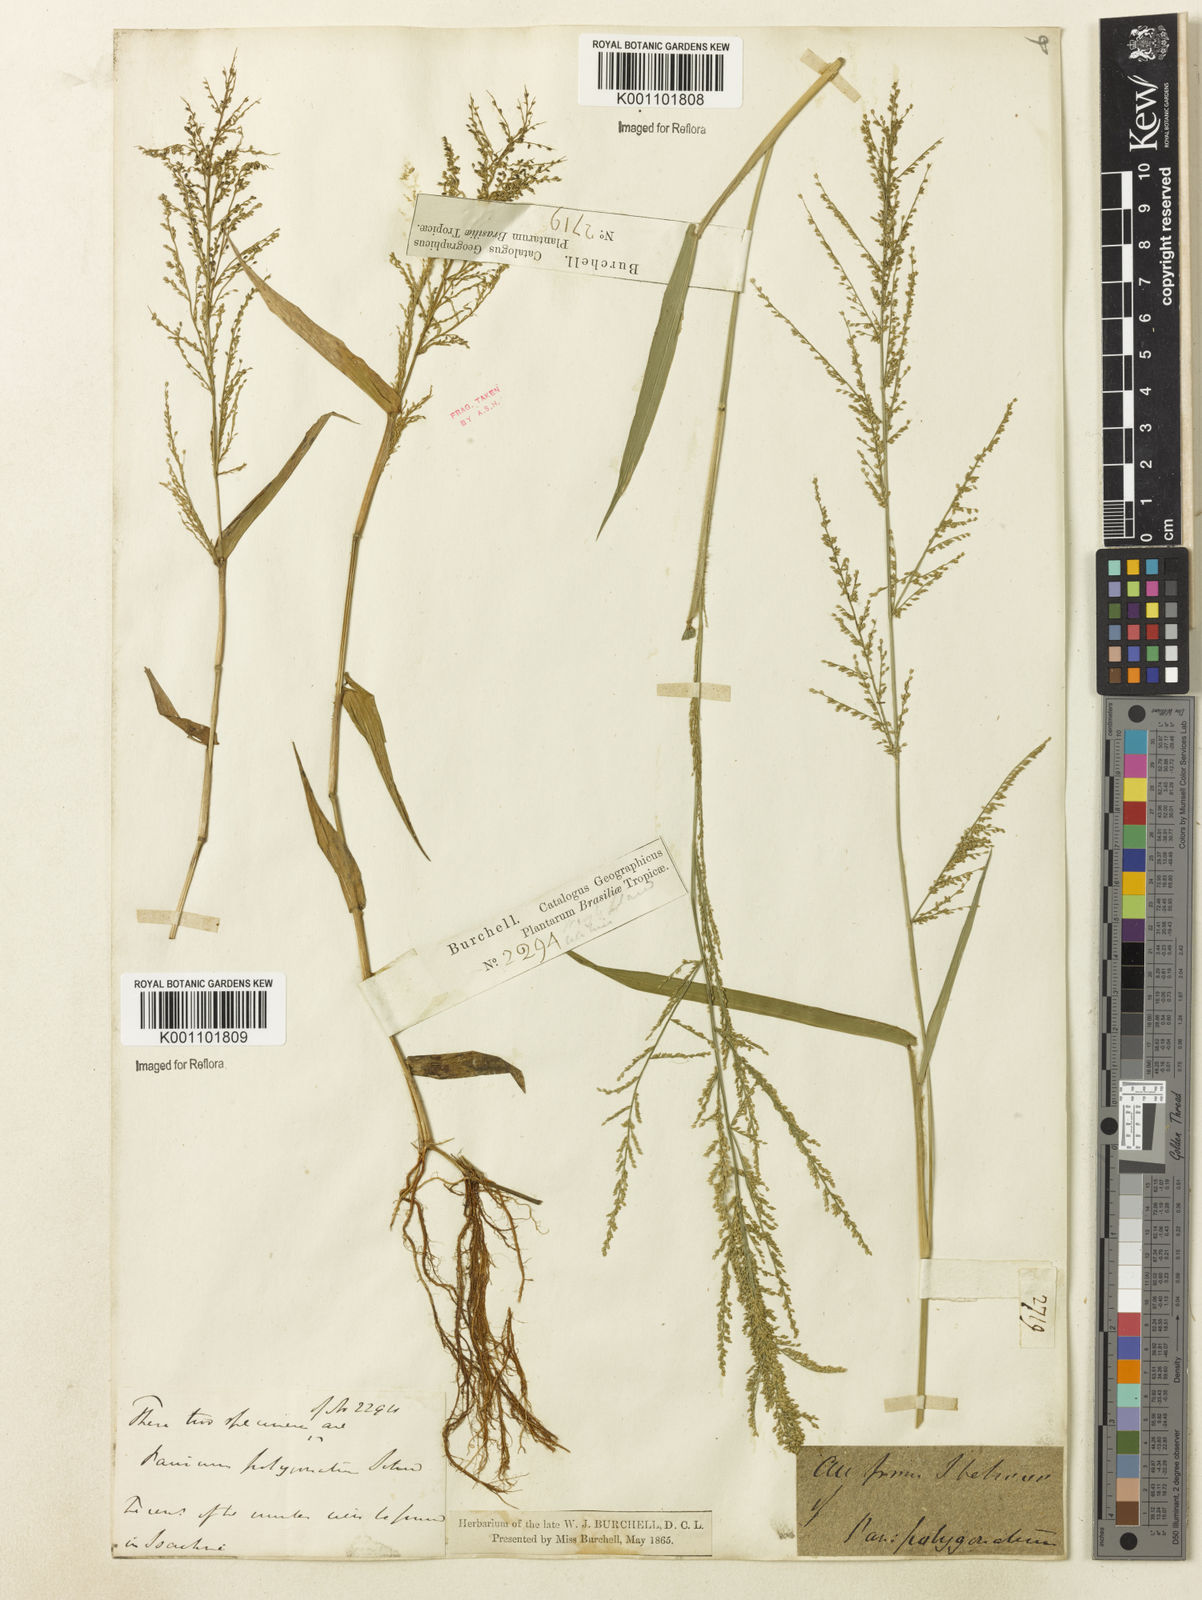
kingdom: Plantae
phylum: Tracheophyta
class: Liliopsida
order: Poales
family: Poaceae
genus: Rugoloa
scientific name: Rugoloa polygonata
